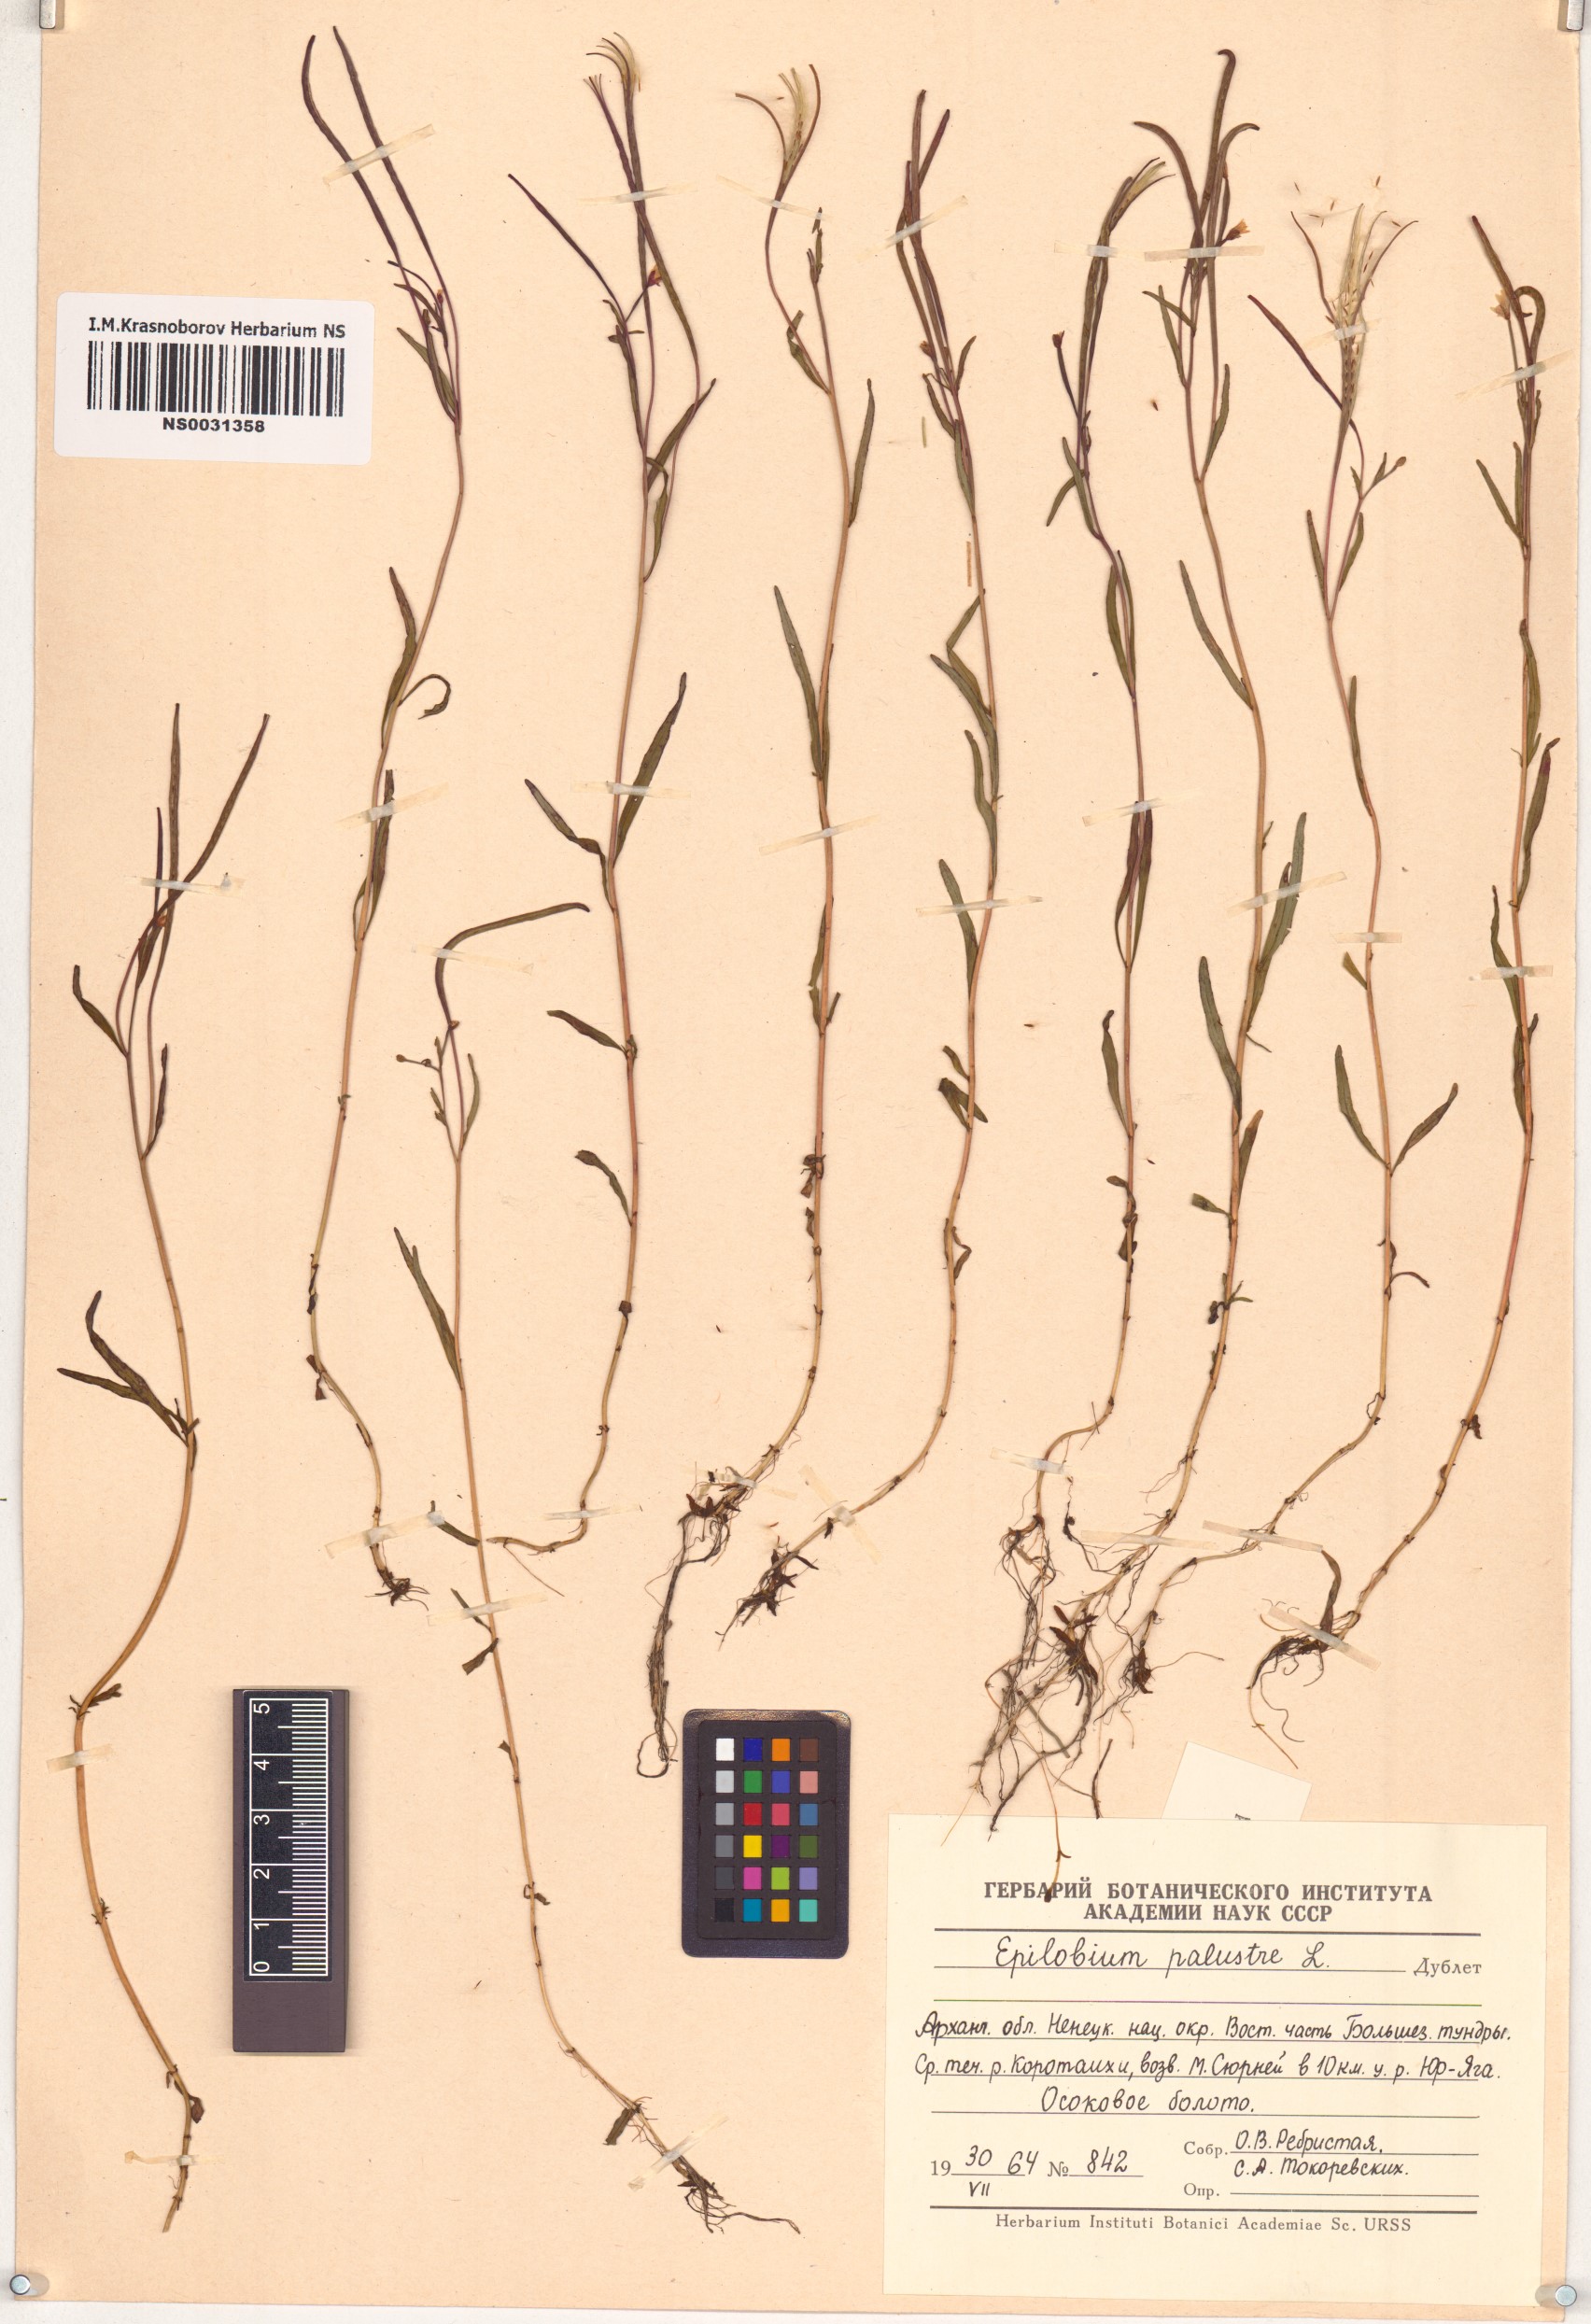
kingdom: Plantae
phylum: Tracheophyta
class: Magnoliopsida
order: Myrtales
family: Onagraceae
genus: Epilobium
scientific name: Epilobium palustre
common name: Marsh willowherb
